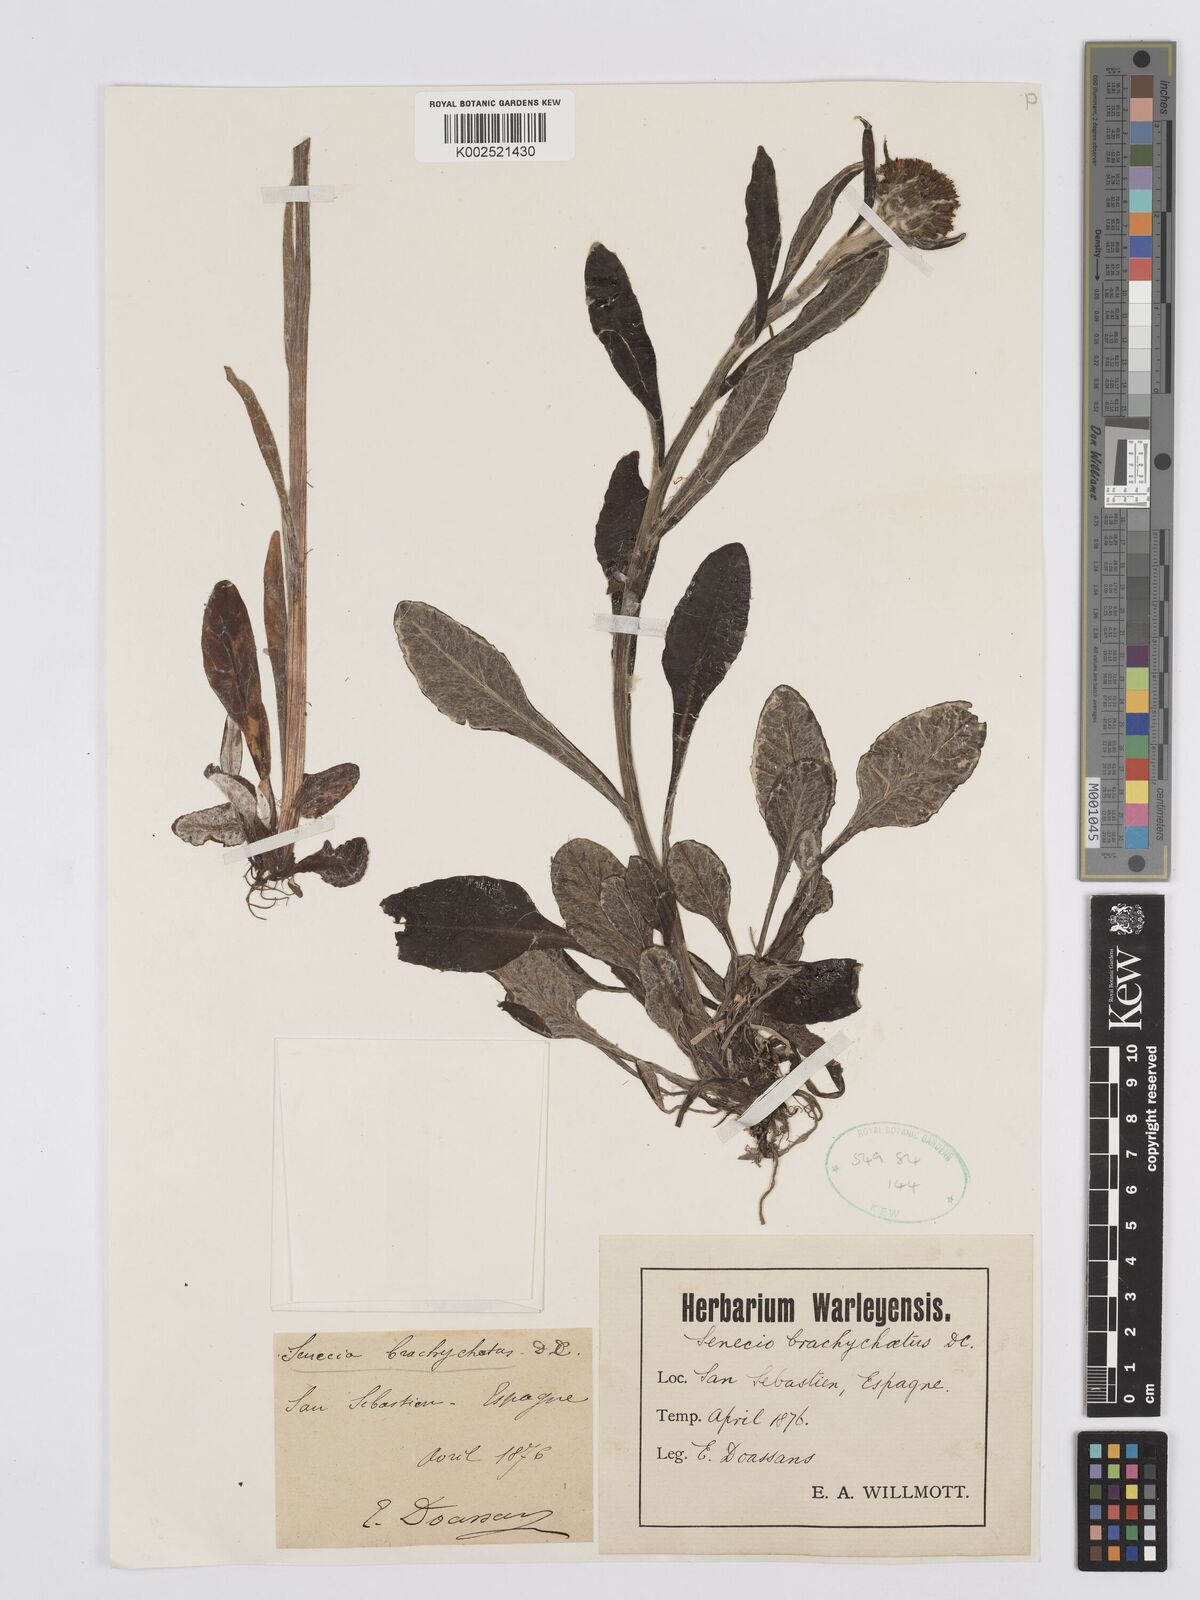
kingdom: Plantae
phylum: Tracheophyta
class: Magnoliopsida
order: Asterales
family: Asteraceae
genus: Tephroseris
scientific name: Tephroseris
